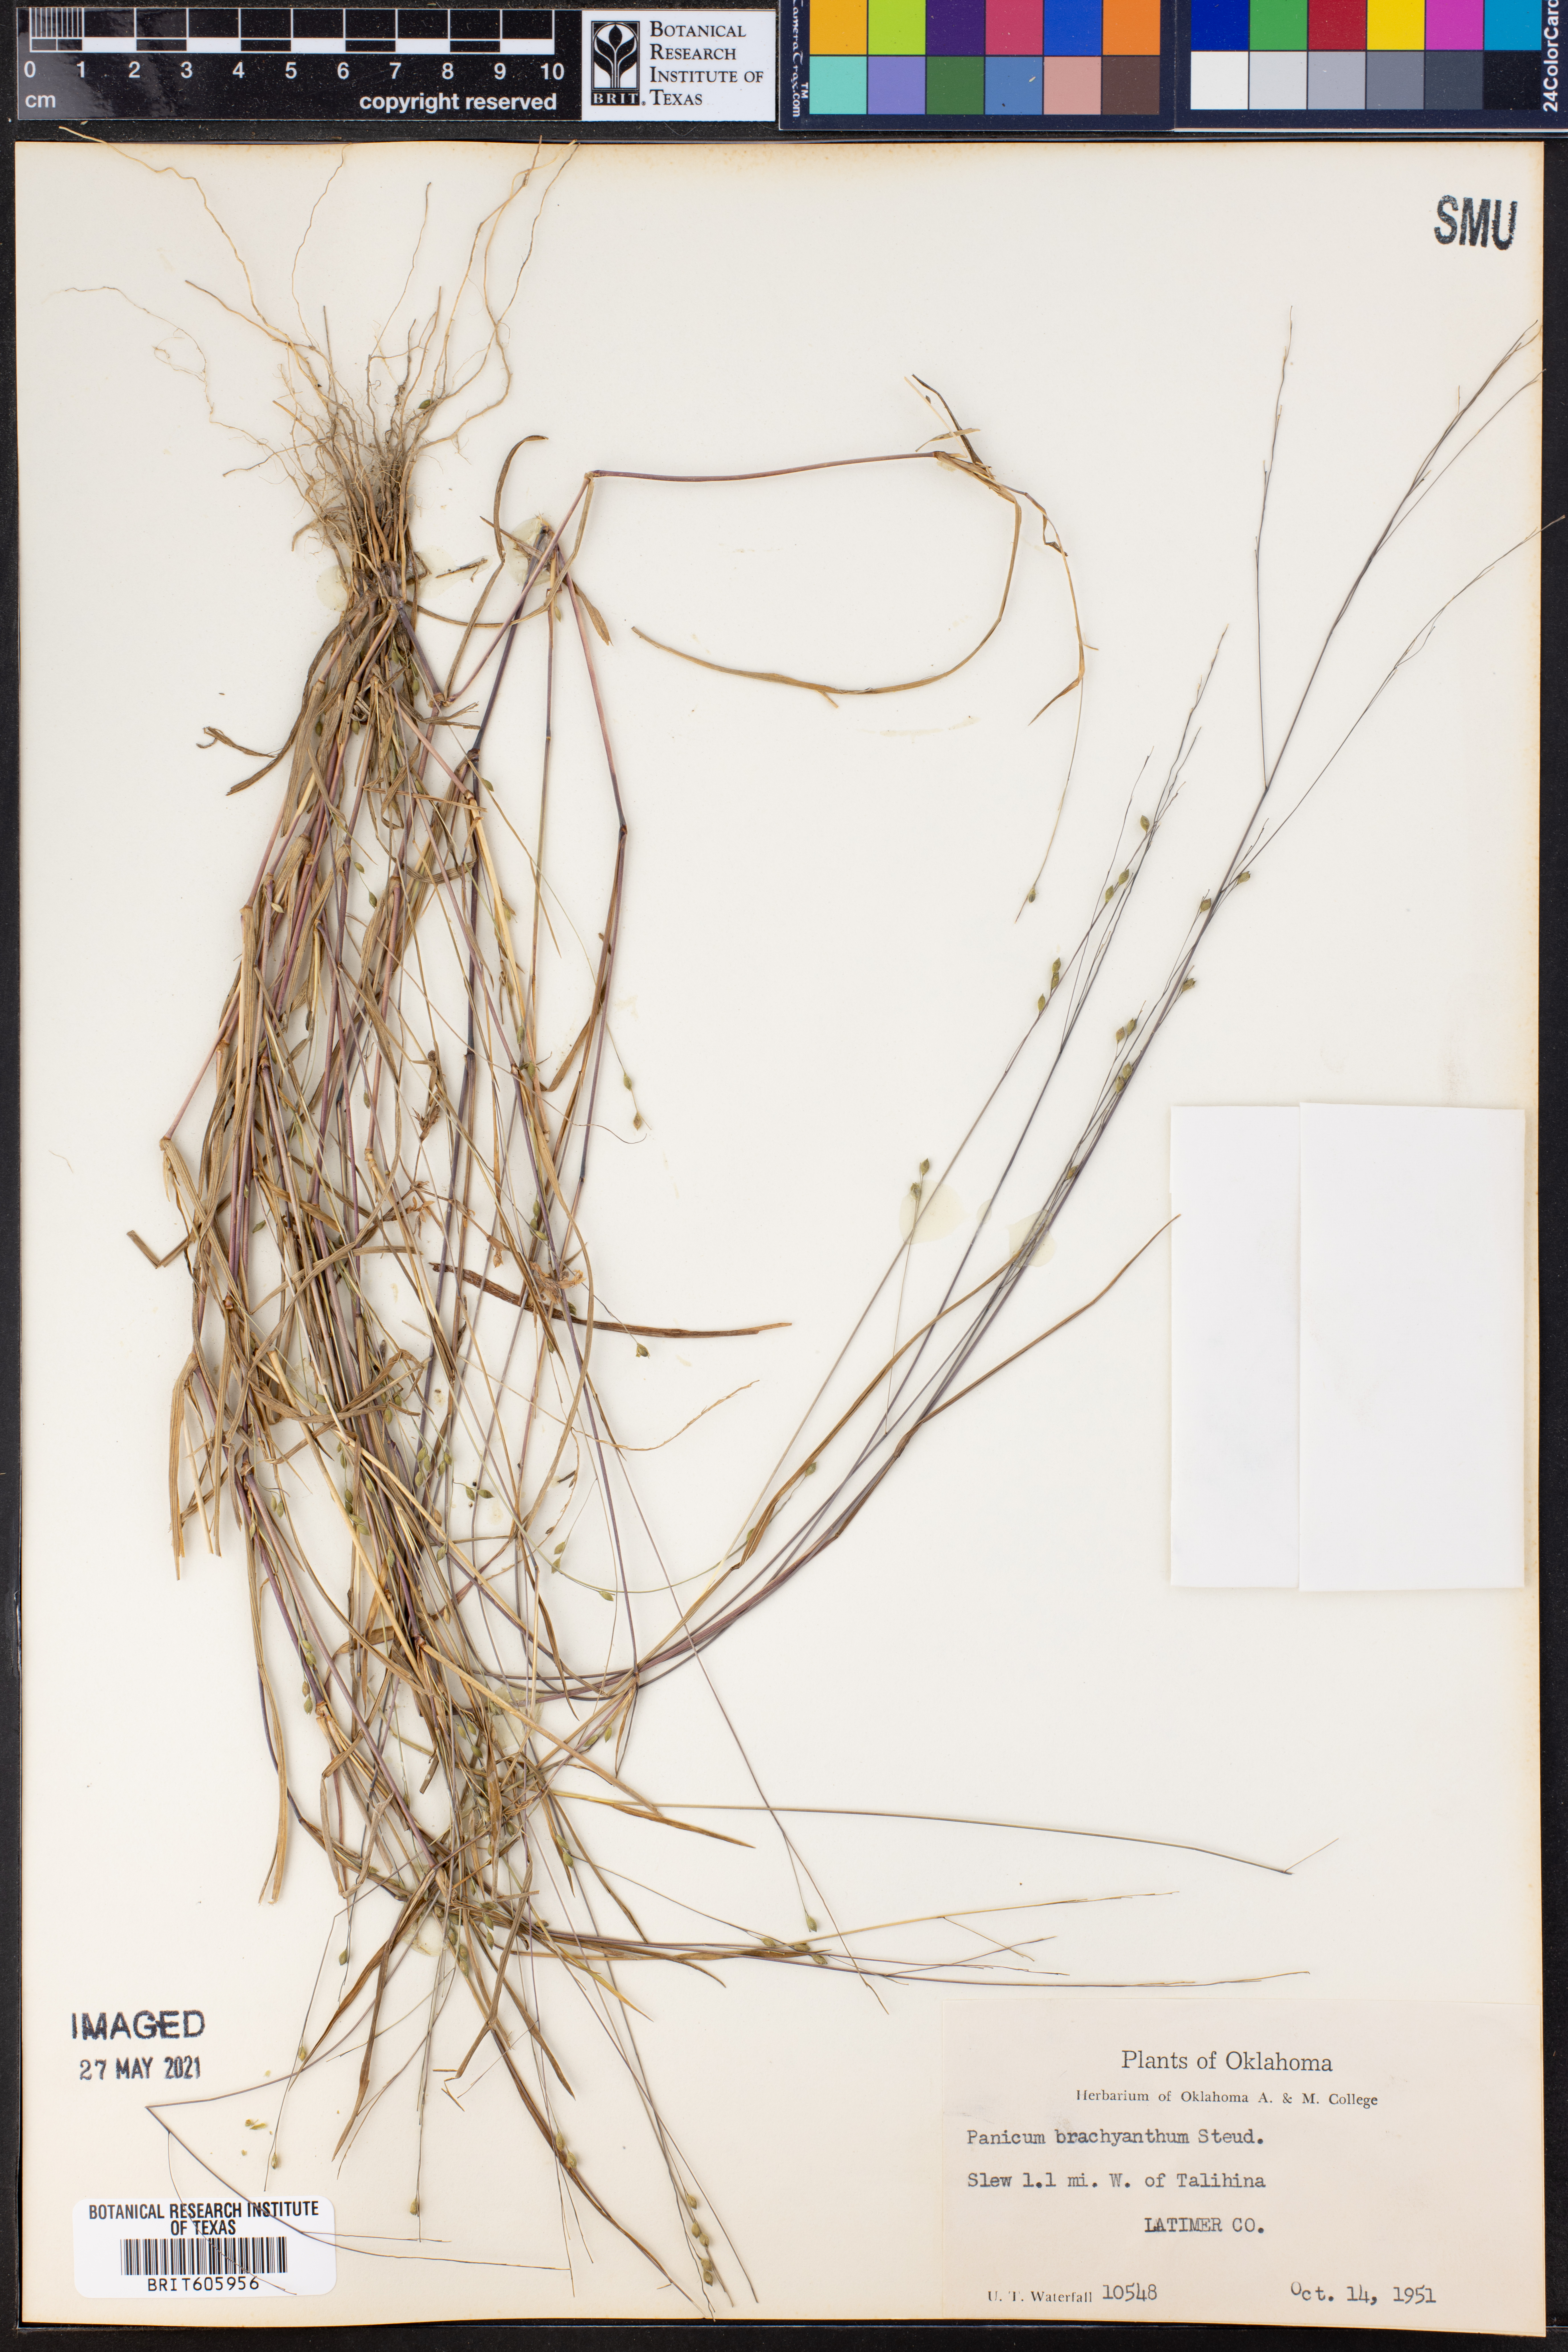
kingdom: Plantae
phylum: Tracheophyta
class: Liliopsida
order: Poales
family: Poaceae
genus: Kellochloa
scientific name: Kellochloa brachyantha
